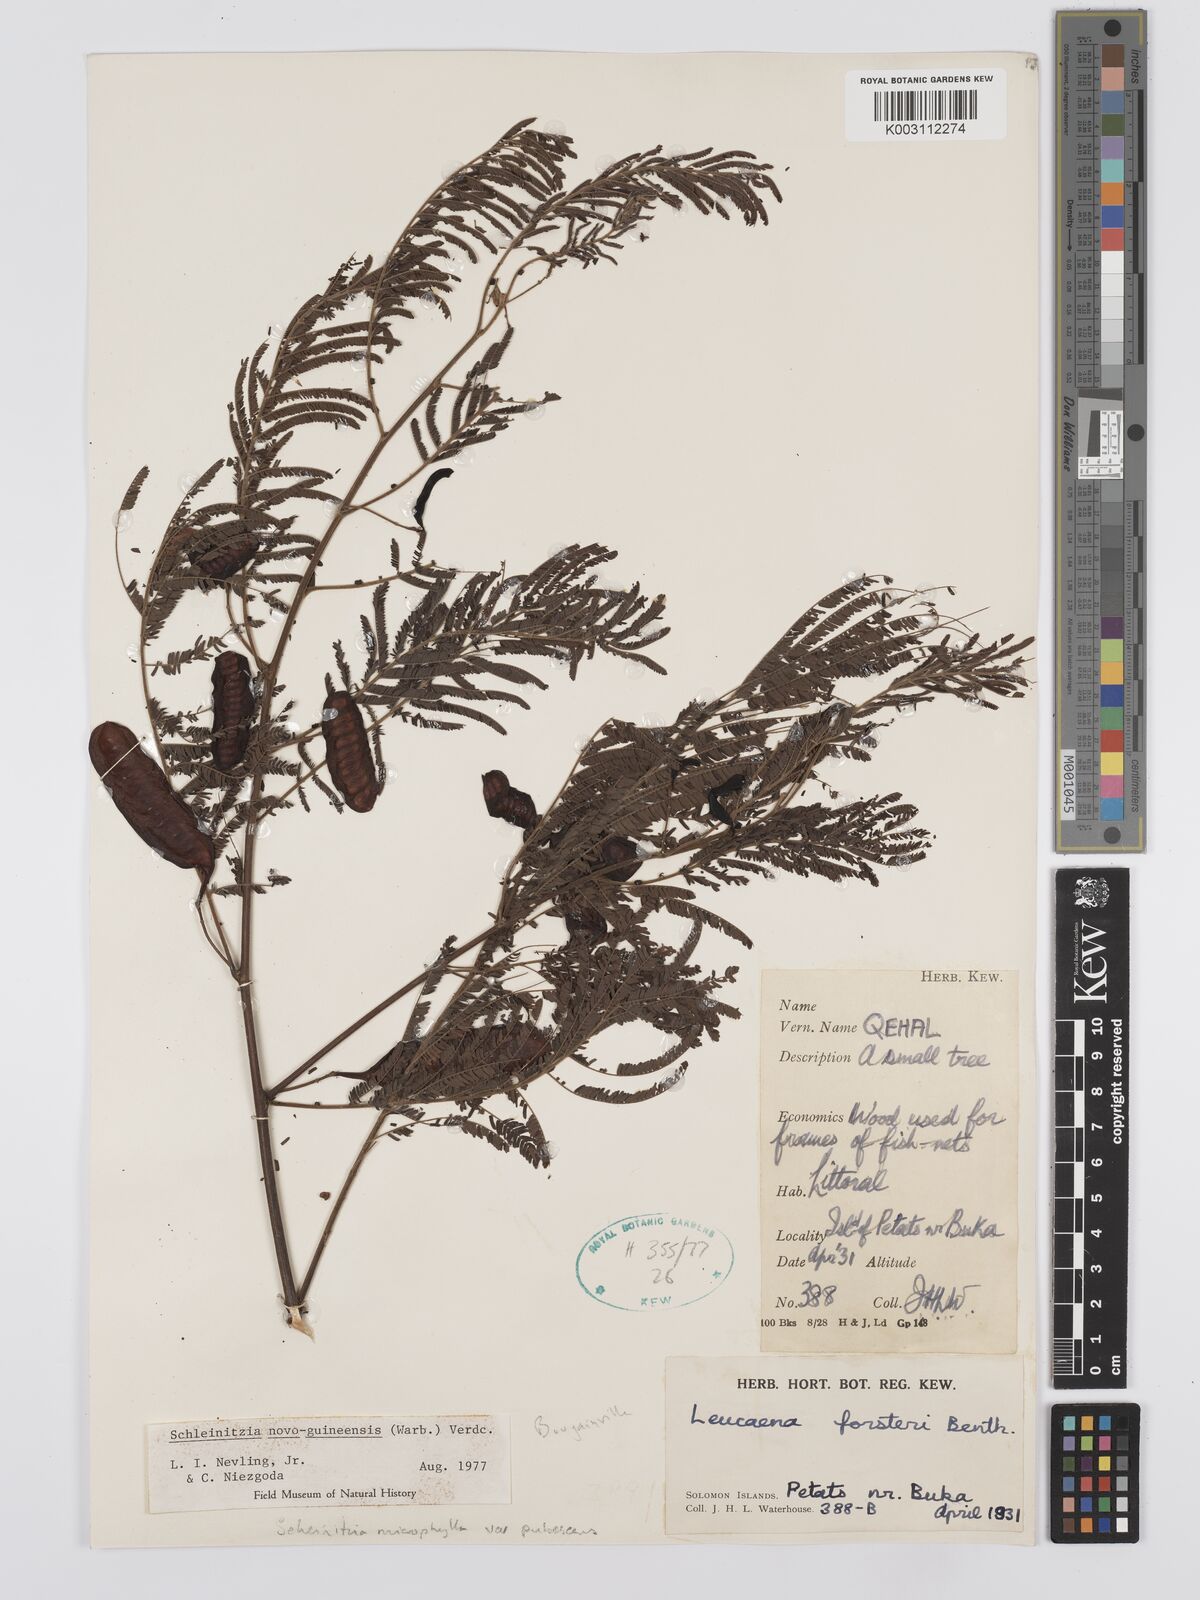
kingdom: Plantae
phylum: Tracheophyta
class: Magnoliopsida
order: Fabales
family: Fabaceae
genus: Schleinitzia
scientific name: Schleinitzia novoguineensis
